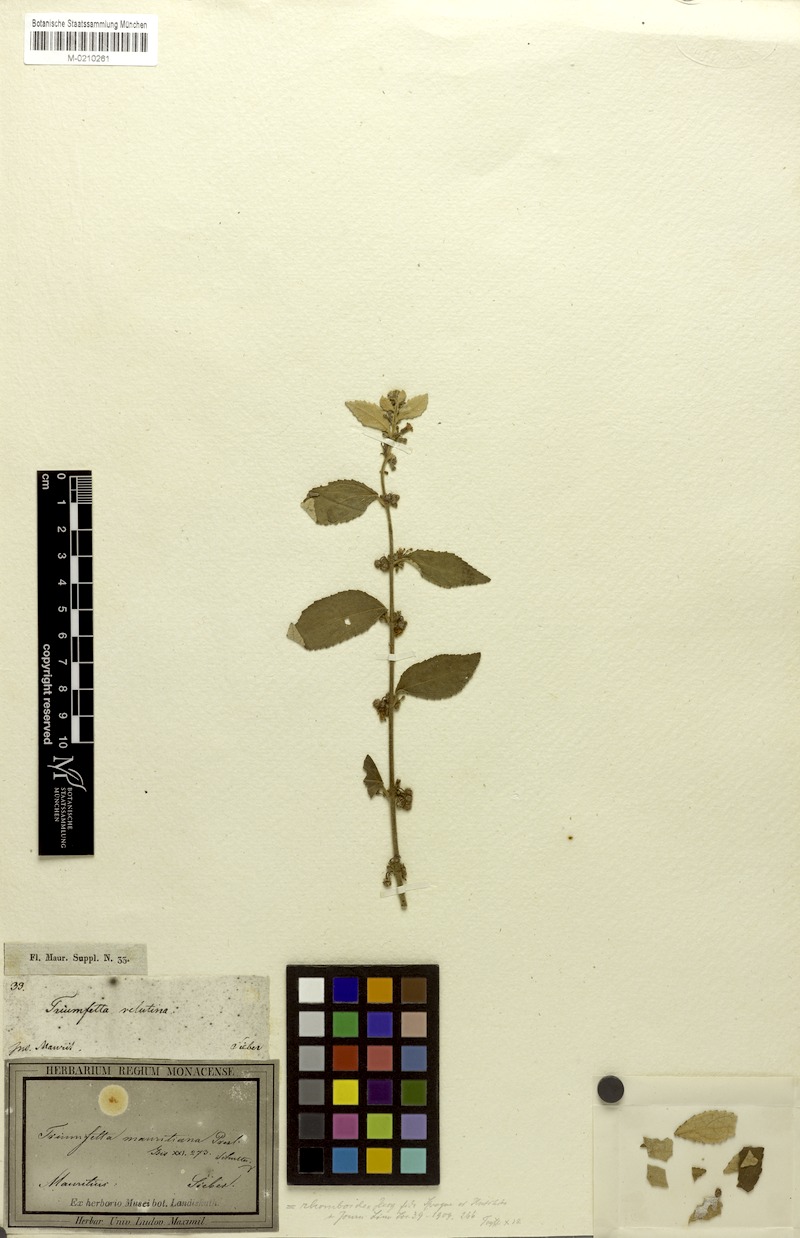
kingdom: Plantae
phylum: Tracheophyta
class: Magnoliopsida
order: Malvales
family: Malvaceae
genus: Triumfetta
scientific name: Triumfetta rhomboidea
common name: Diamond burbark
